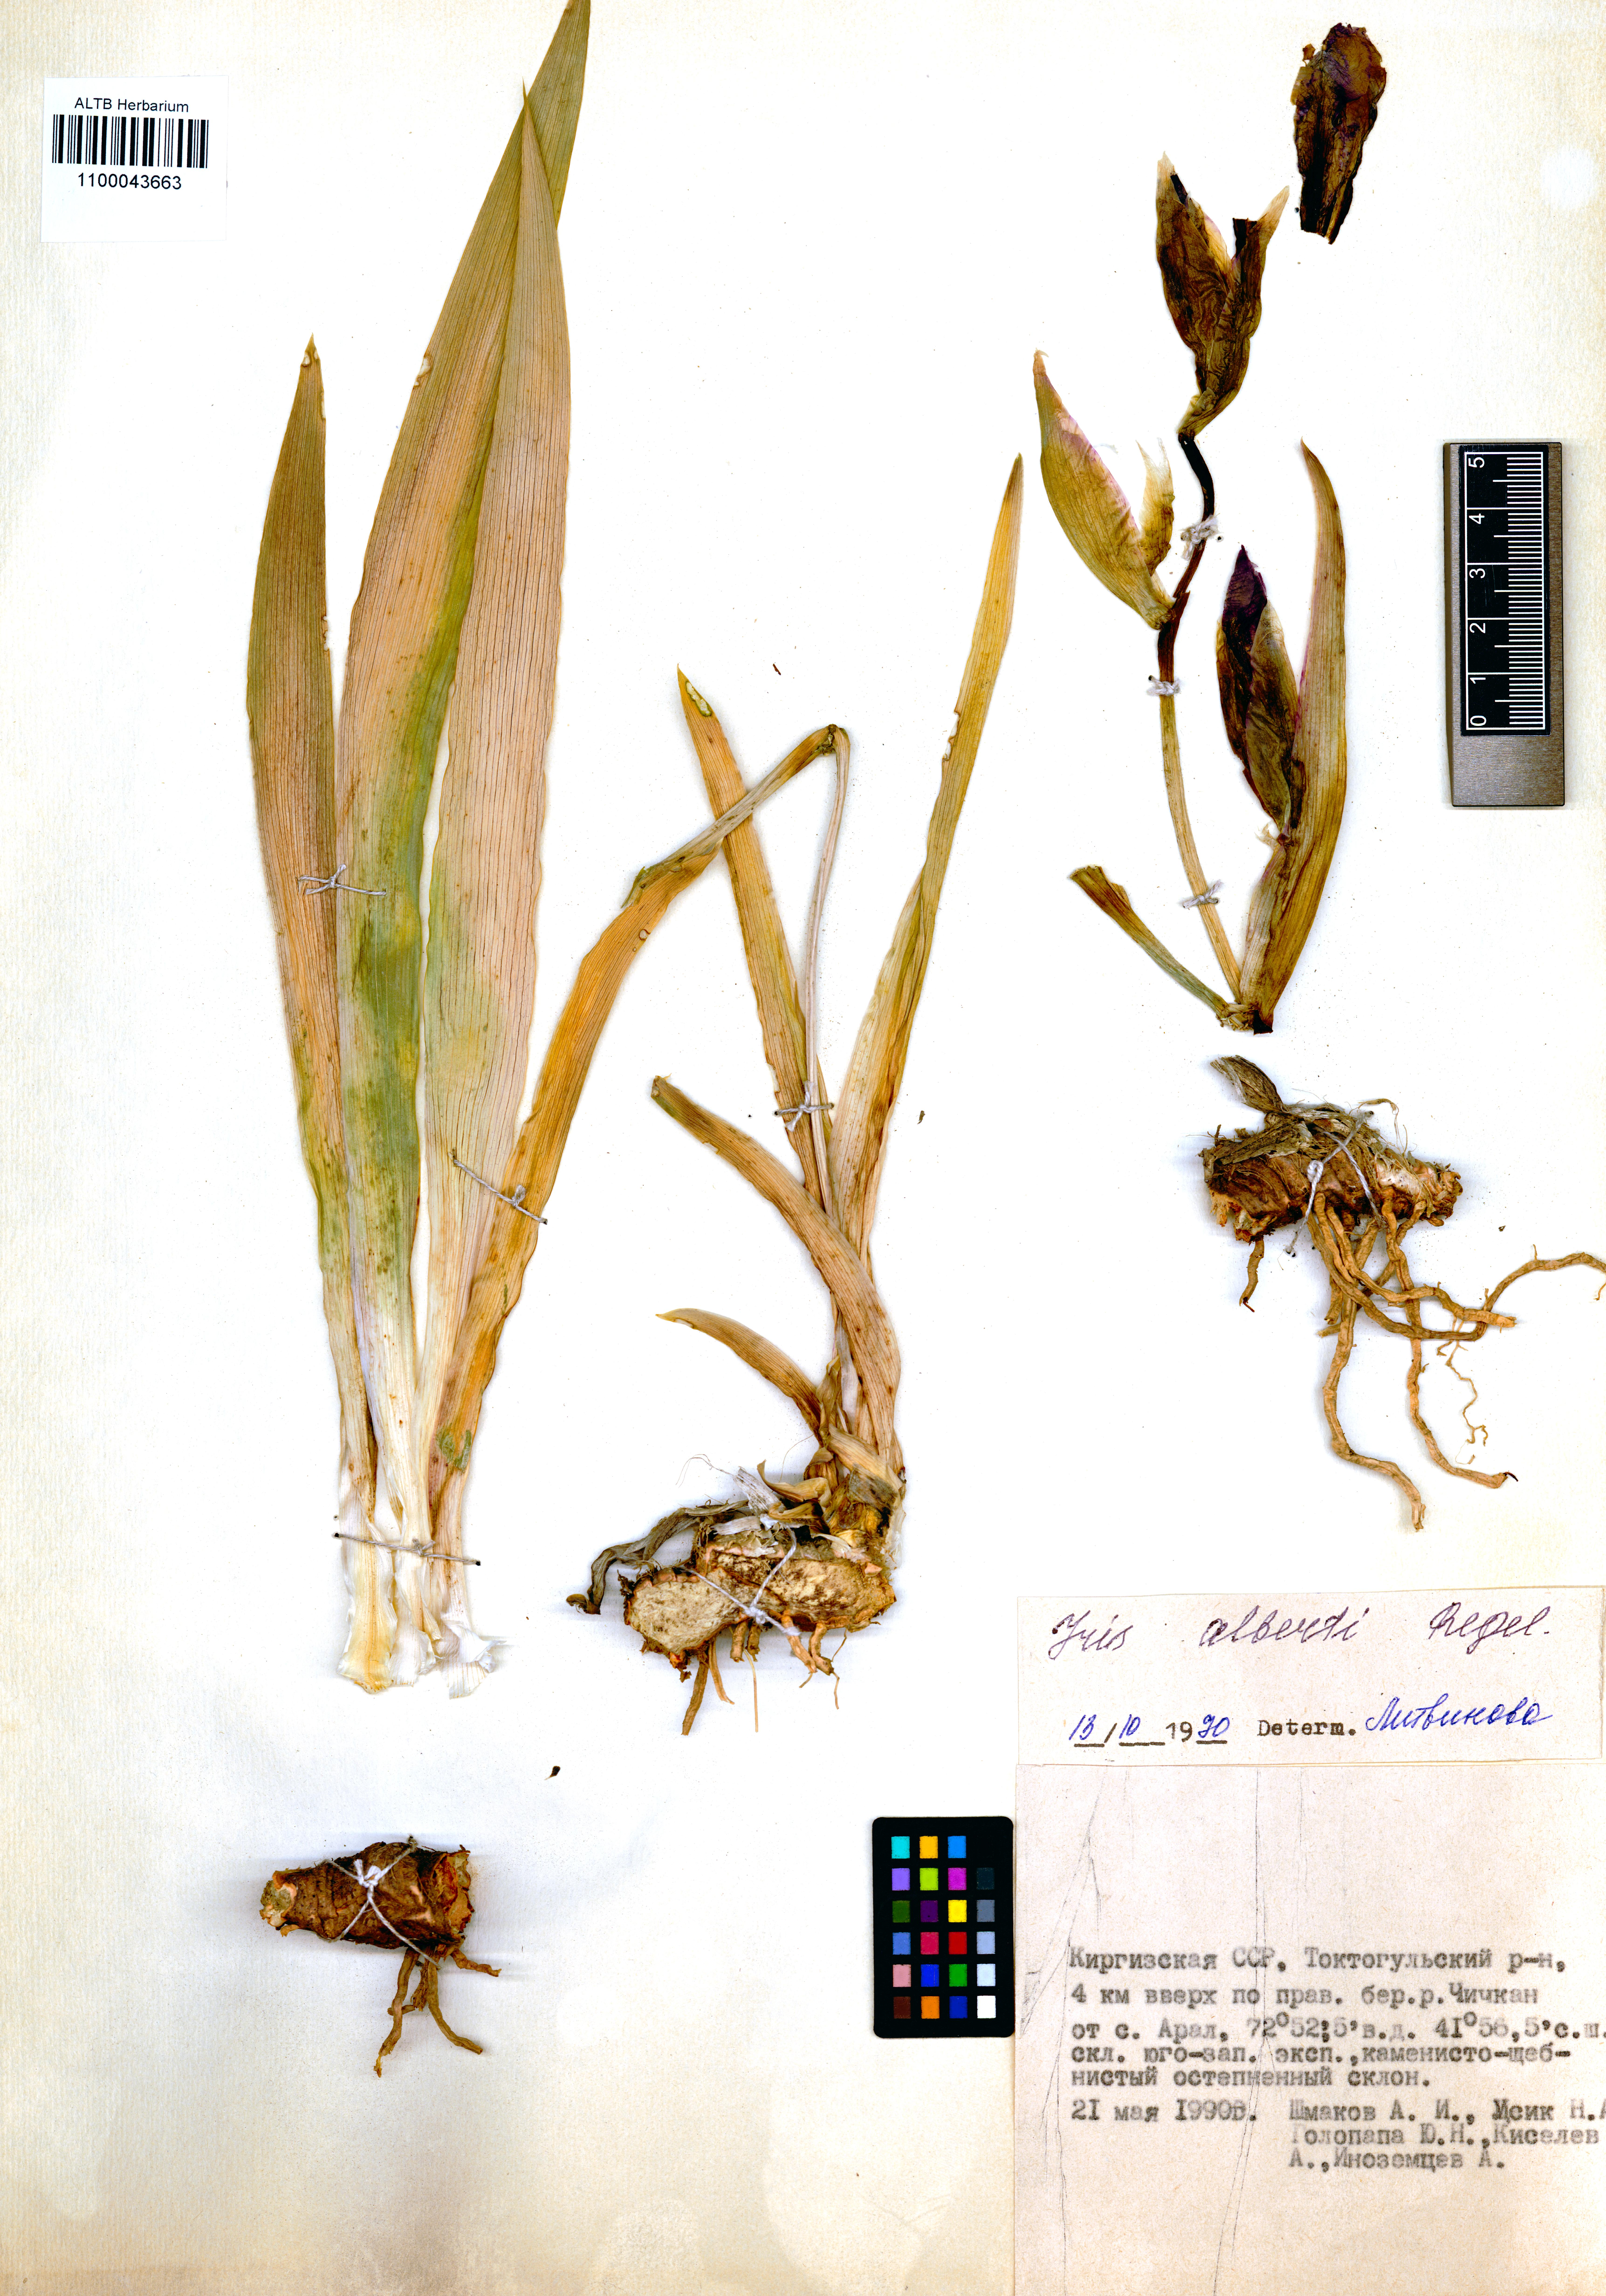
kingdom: Plantae
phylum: Tracheophyta
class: Liliopsida
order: Asparagales
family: Iridaceae
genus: Iris
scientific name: Iris alberti
